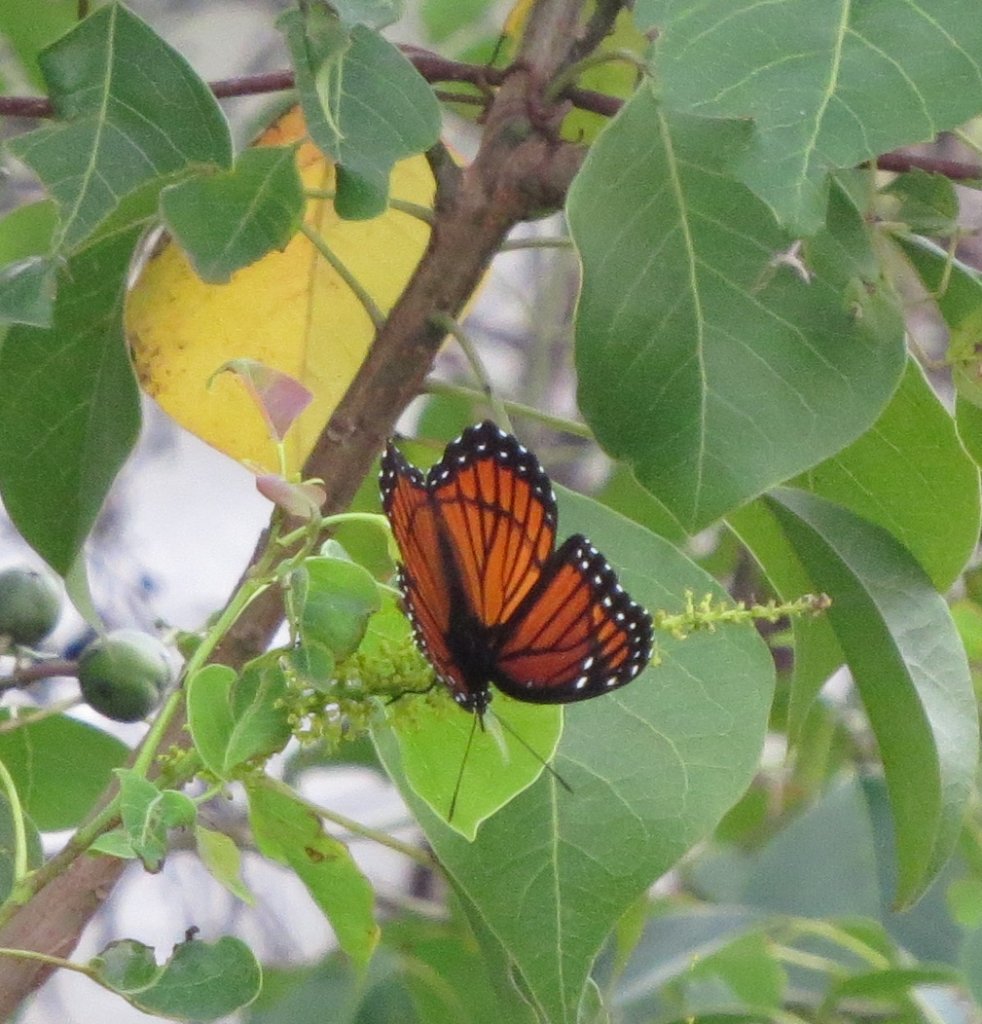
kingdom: Animalia
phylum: Arthropoda
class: Insecta
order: Lepidoptera
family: Nymphalidae
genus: Limenitis
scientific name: Limenitis archippus
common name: Viceroy
